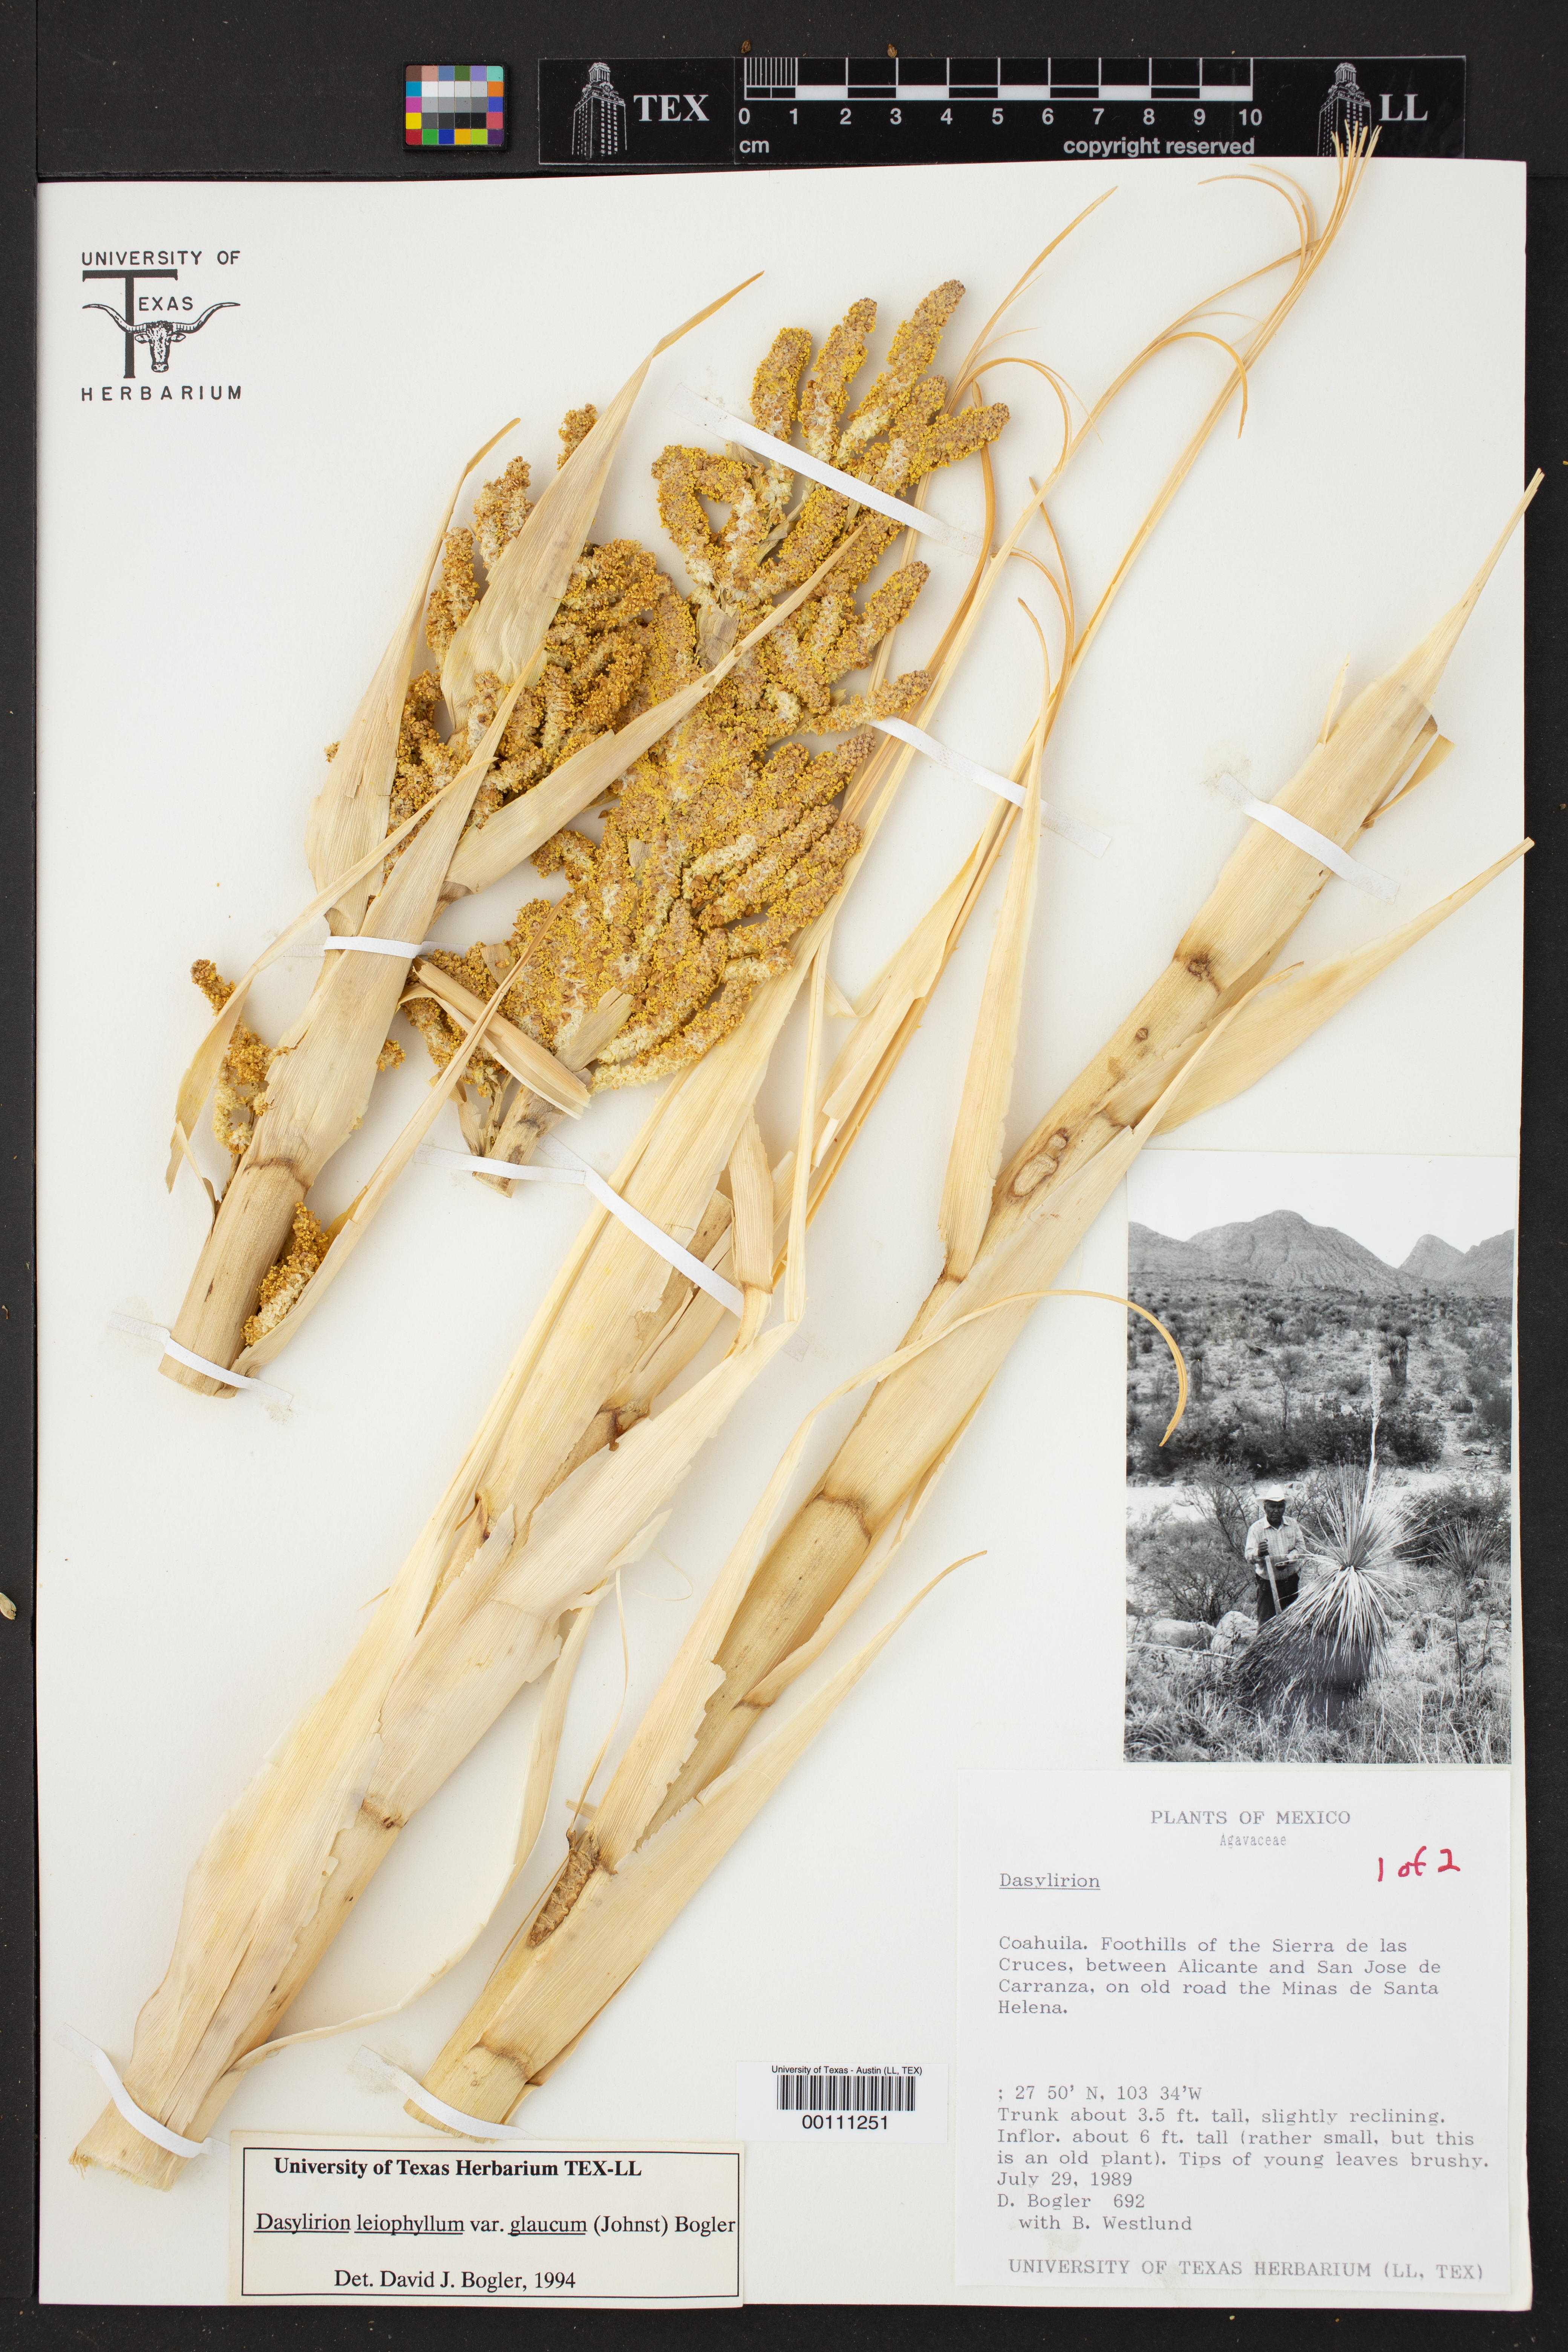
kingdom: Plantae
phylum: Tracheophyta
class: Liliopsida
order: Asparagales
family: Asparagaceae
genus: Dasylirion
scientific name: Dasylirion leiophyllum
